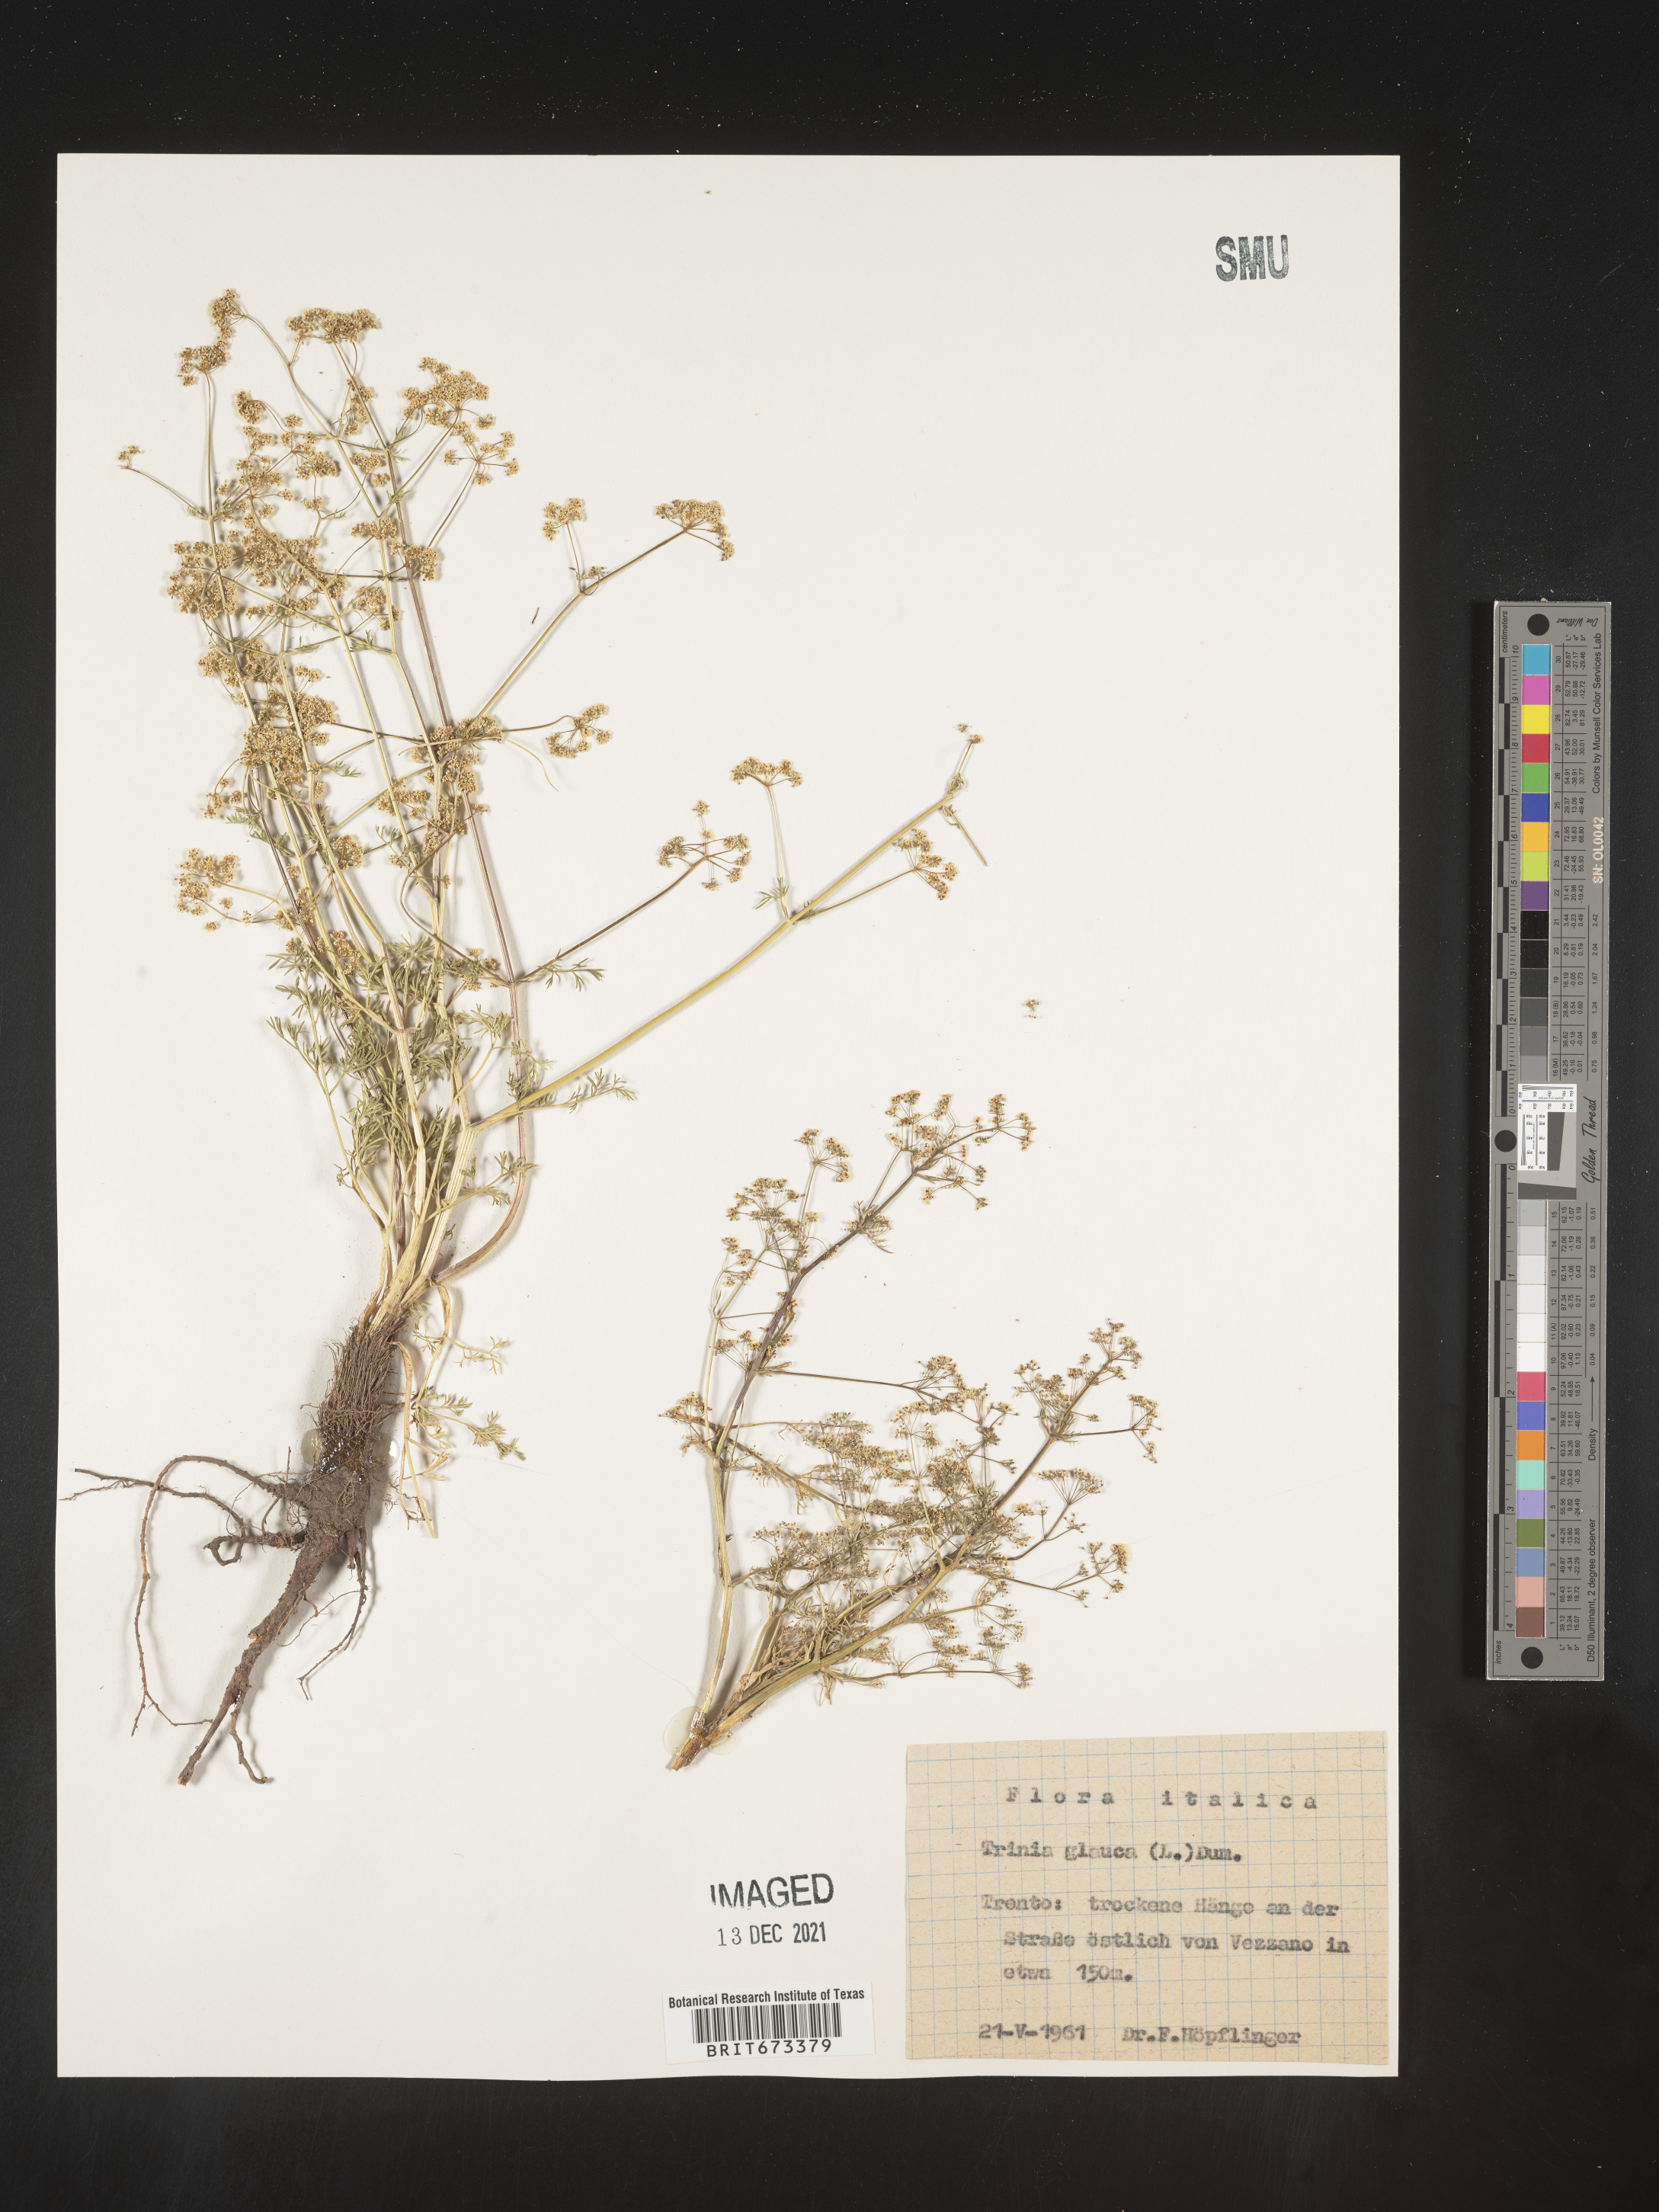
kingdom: Plantae
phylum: Tracheophyta
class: Magnoliopsida
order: Apiales
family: Apiaceae
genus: Trinia
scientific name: Trinia
